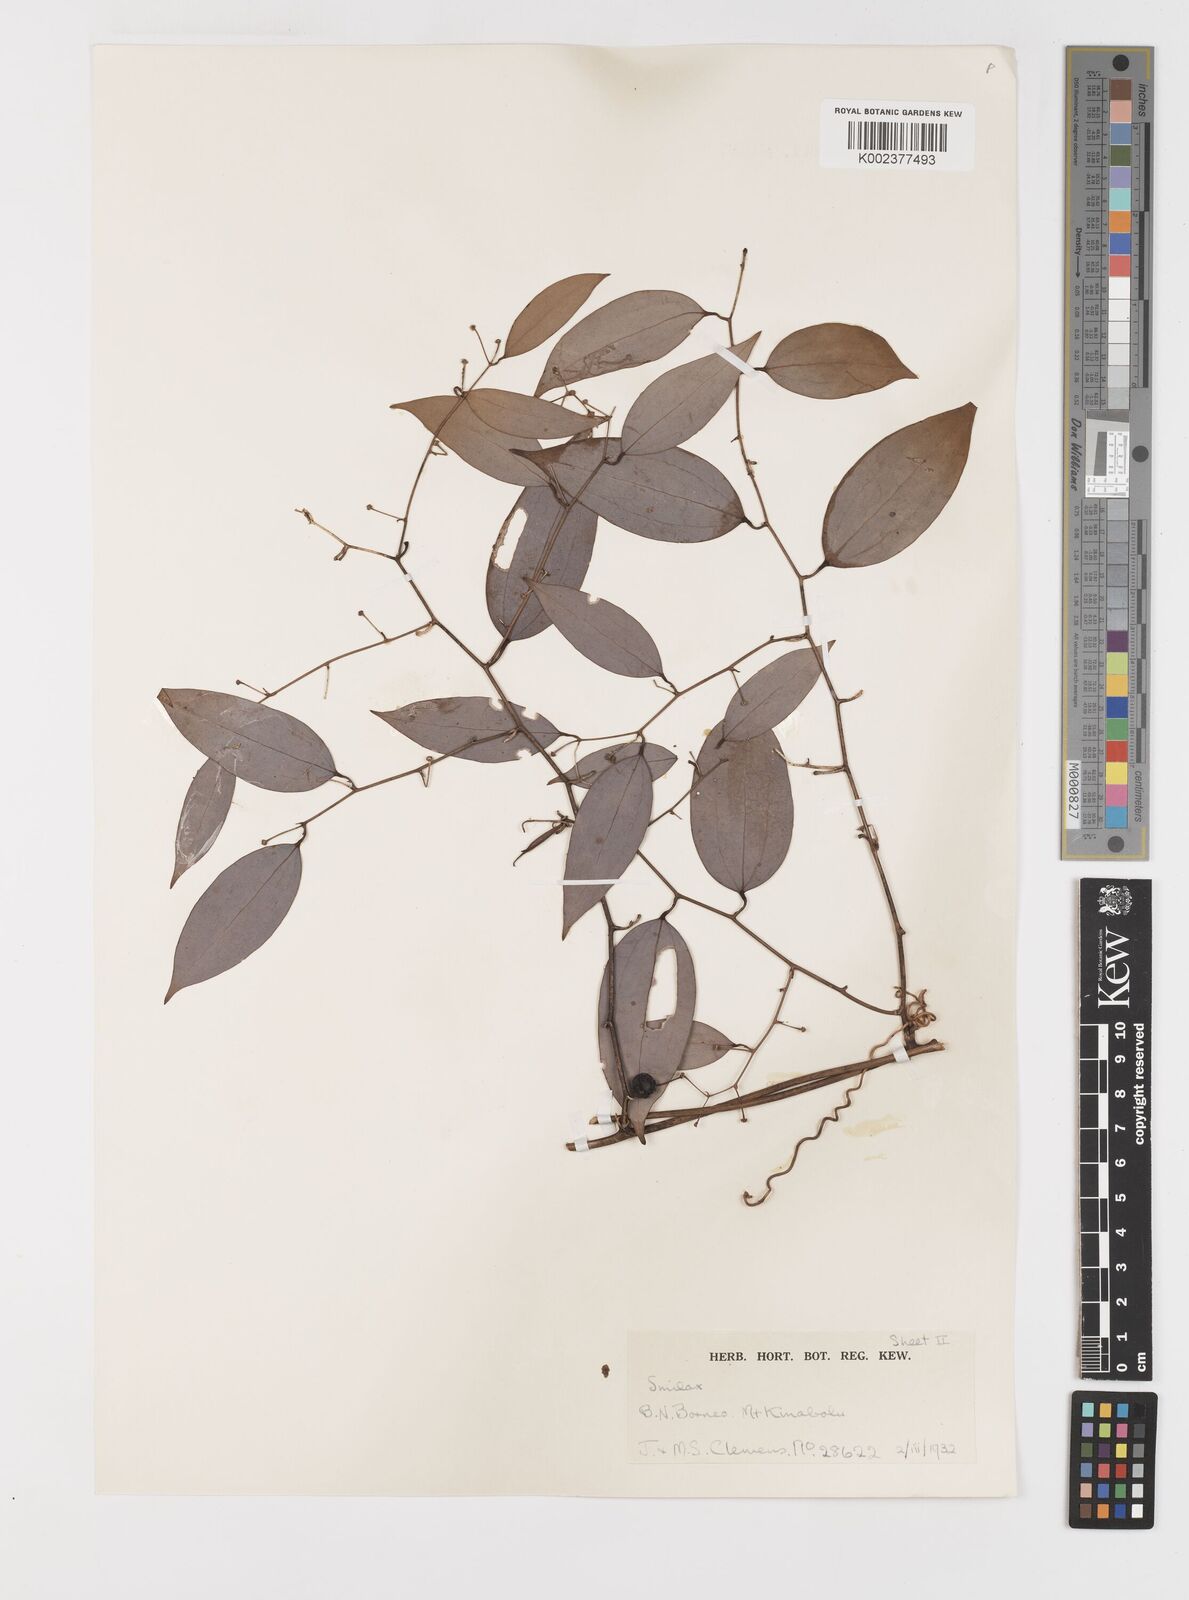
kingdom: Plantae
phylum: Tracheophyta
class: Liliopsida
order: Liliales
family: Smilacaceae
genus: Smilax
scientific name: Smilax corbularia
